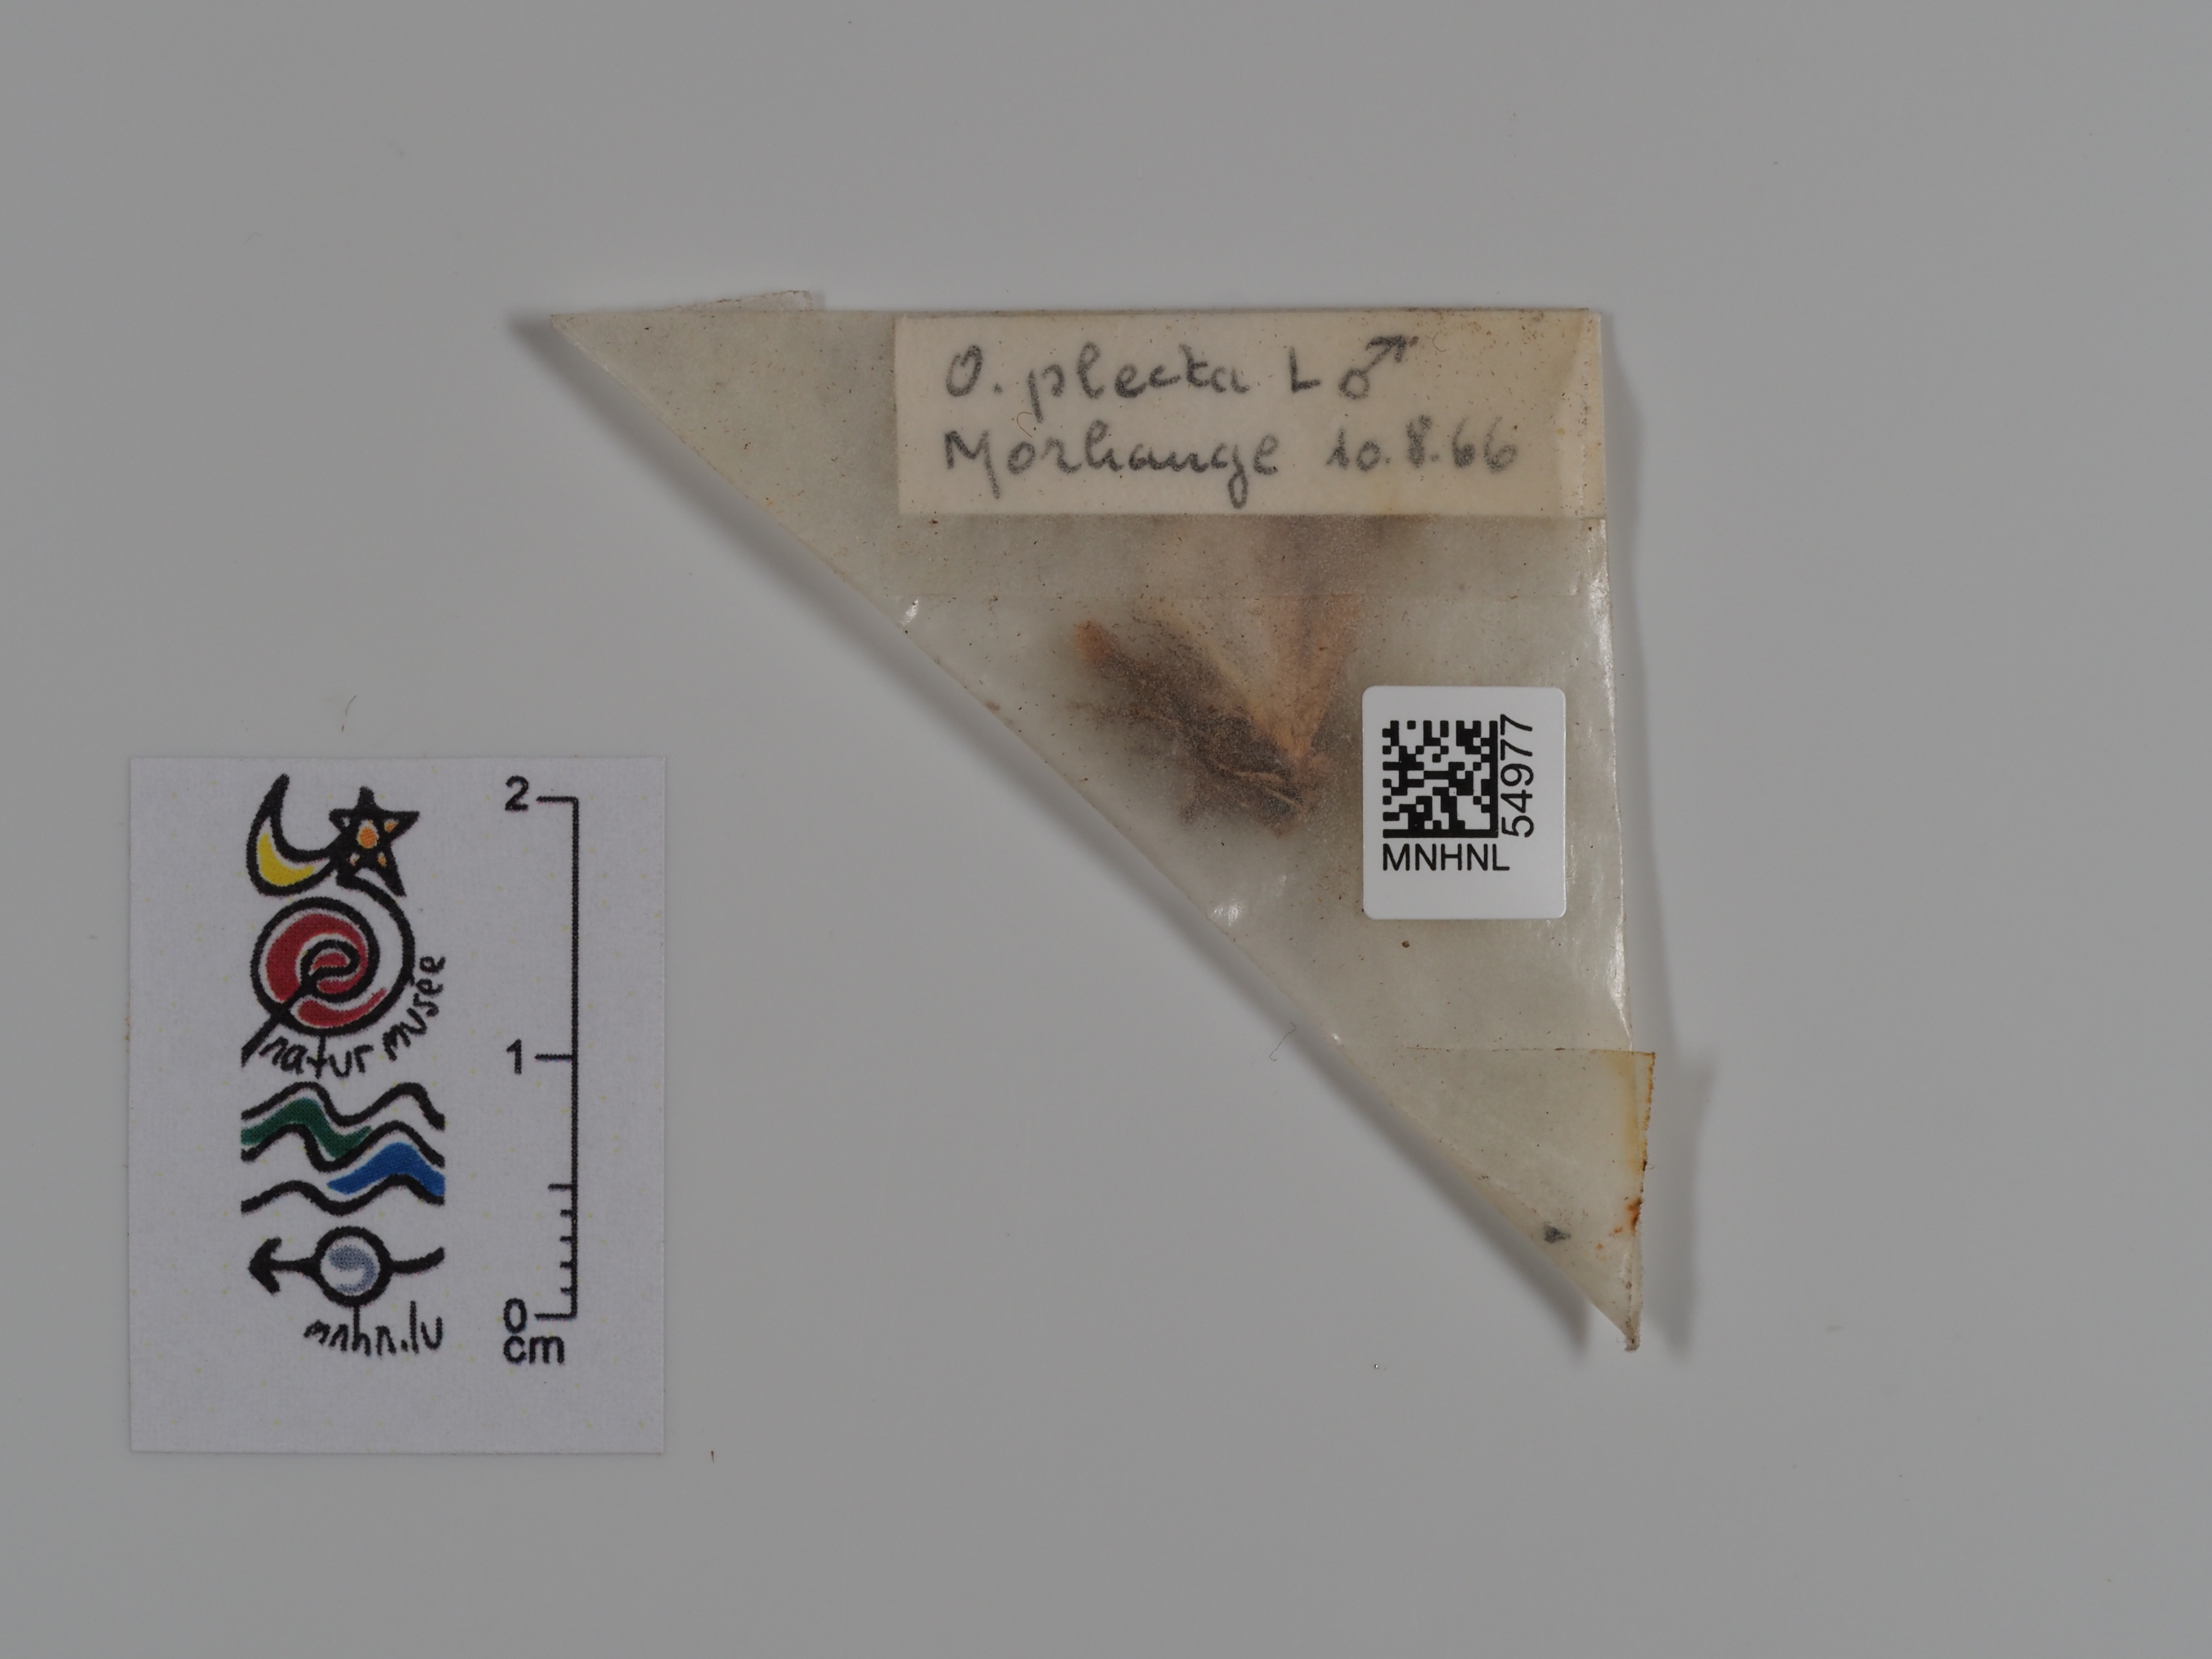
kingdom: Animalia
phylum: Arthropoda
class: Insecta
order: Lepidoptera
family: Noctuidae
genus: Ochropleura
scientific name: Ochropleura plecta
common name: Flame shoulder
